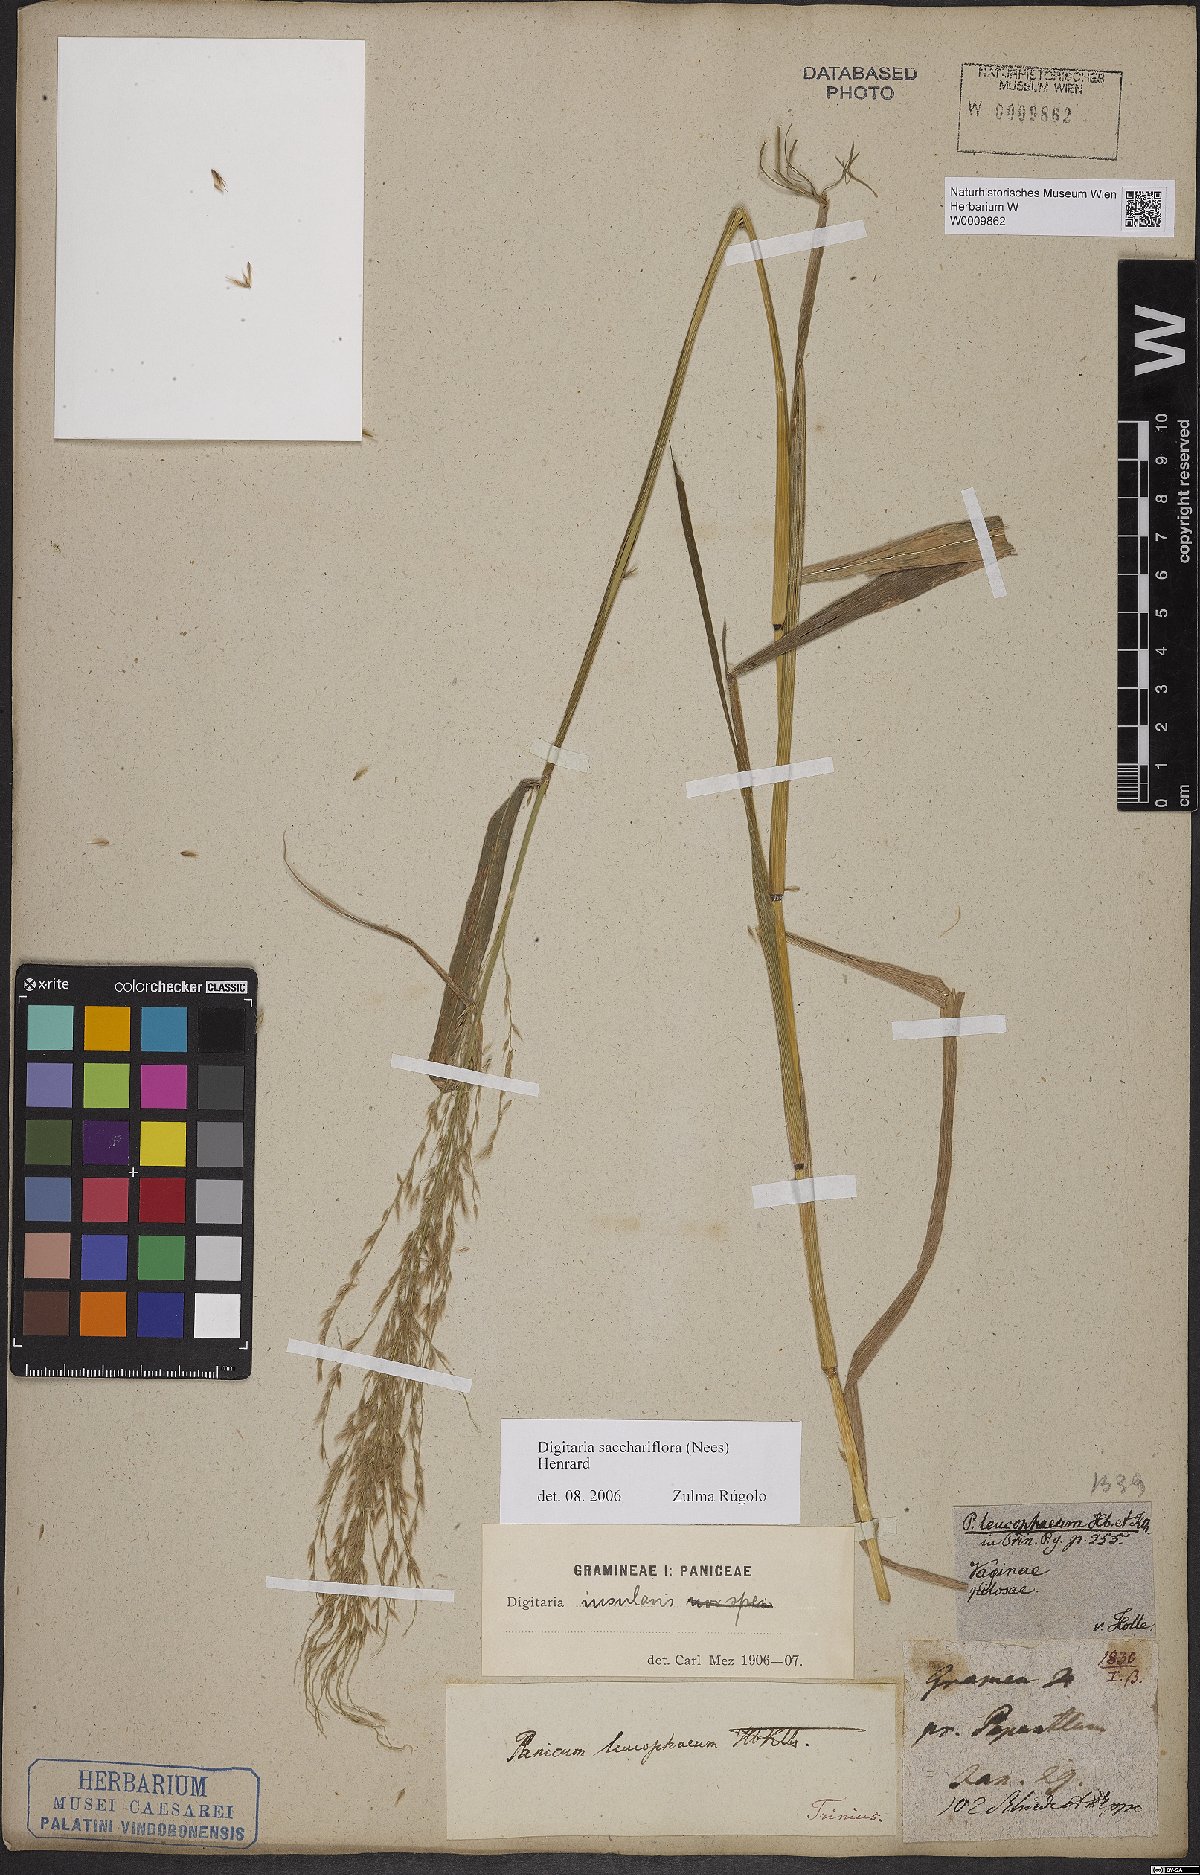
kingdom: Plantae
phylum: Tracheophyta
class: Liliopsida
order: Poales
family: Poaceae
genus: Digitaria
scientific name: Digitaria sacchariflora
